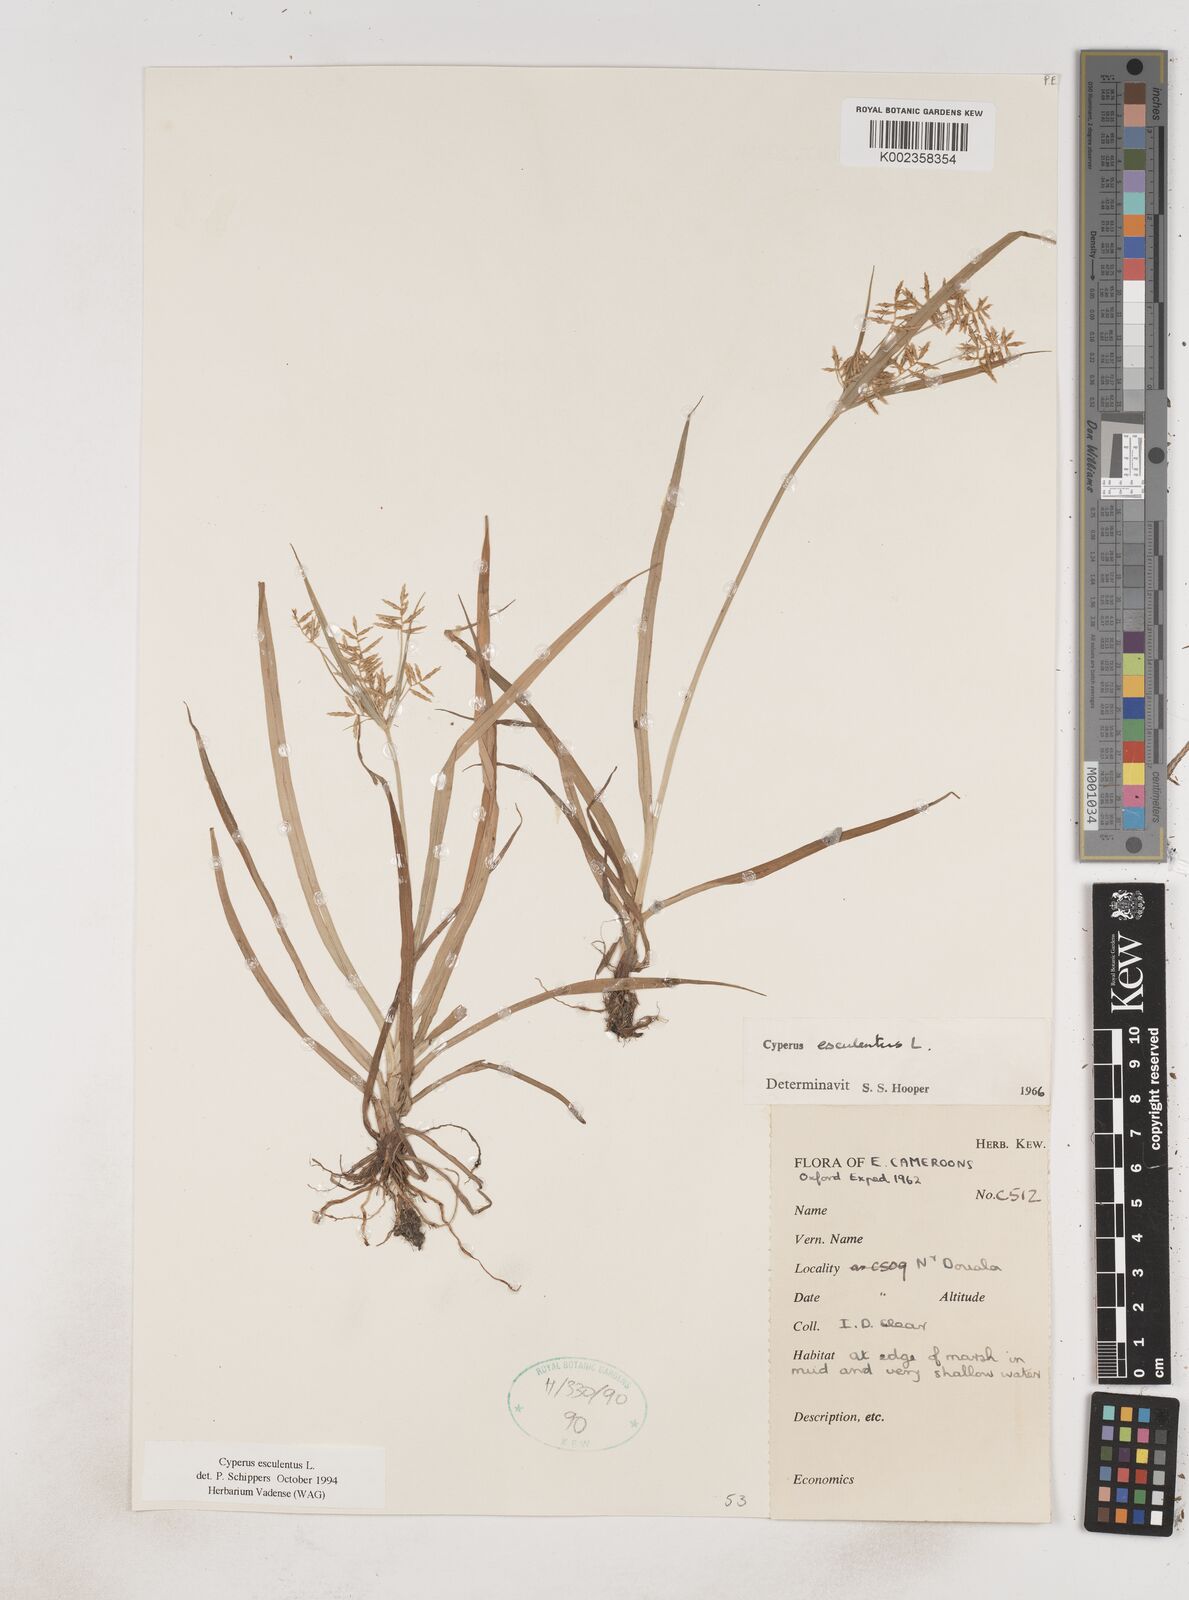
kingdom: Plantae
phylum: Tracheophyta
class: Liliopsida
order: Poales
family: Cyperaceae
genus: Cyperus
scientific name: Cyperus esculentus
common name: Yellow nutsedge
